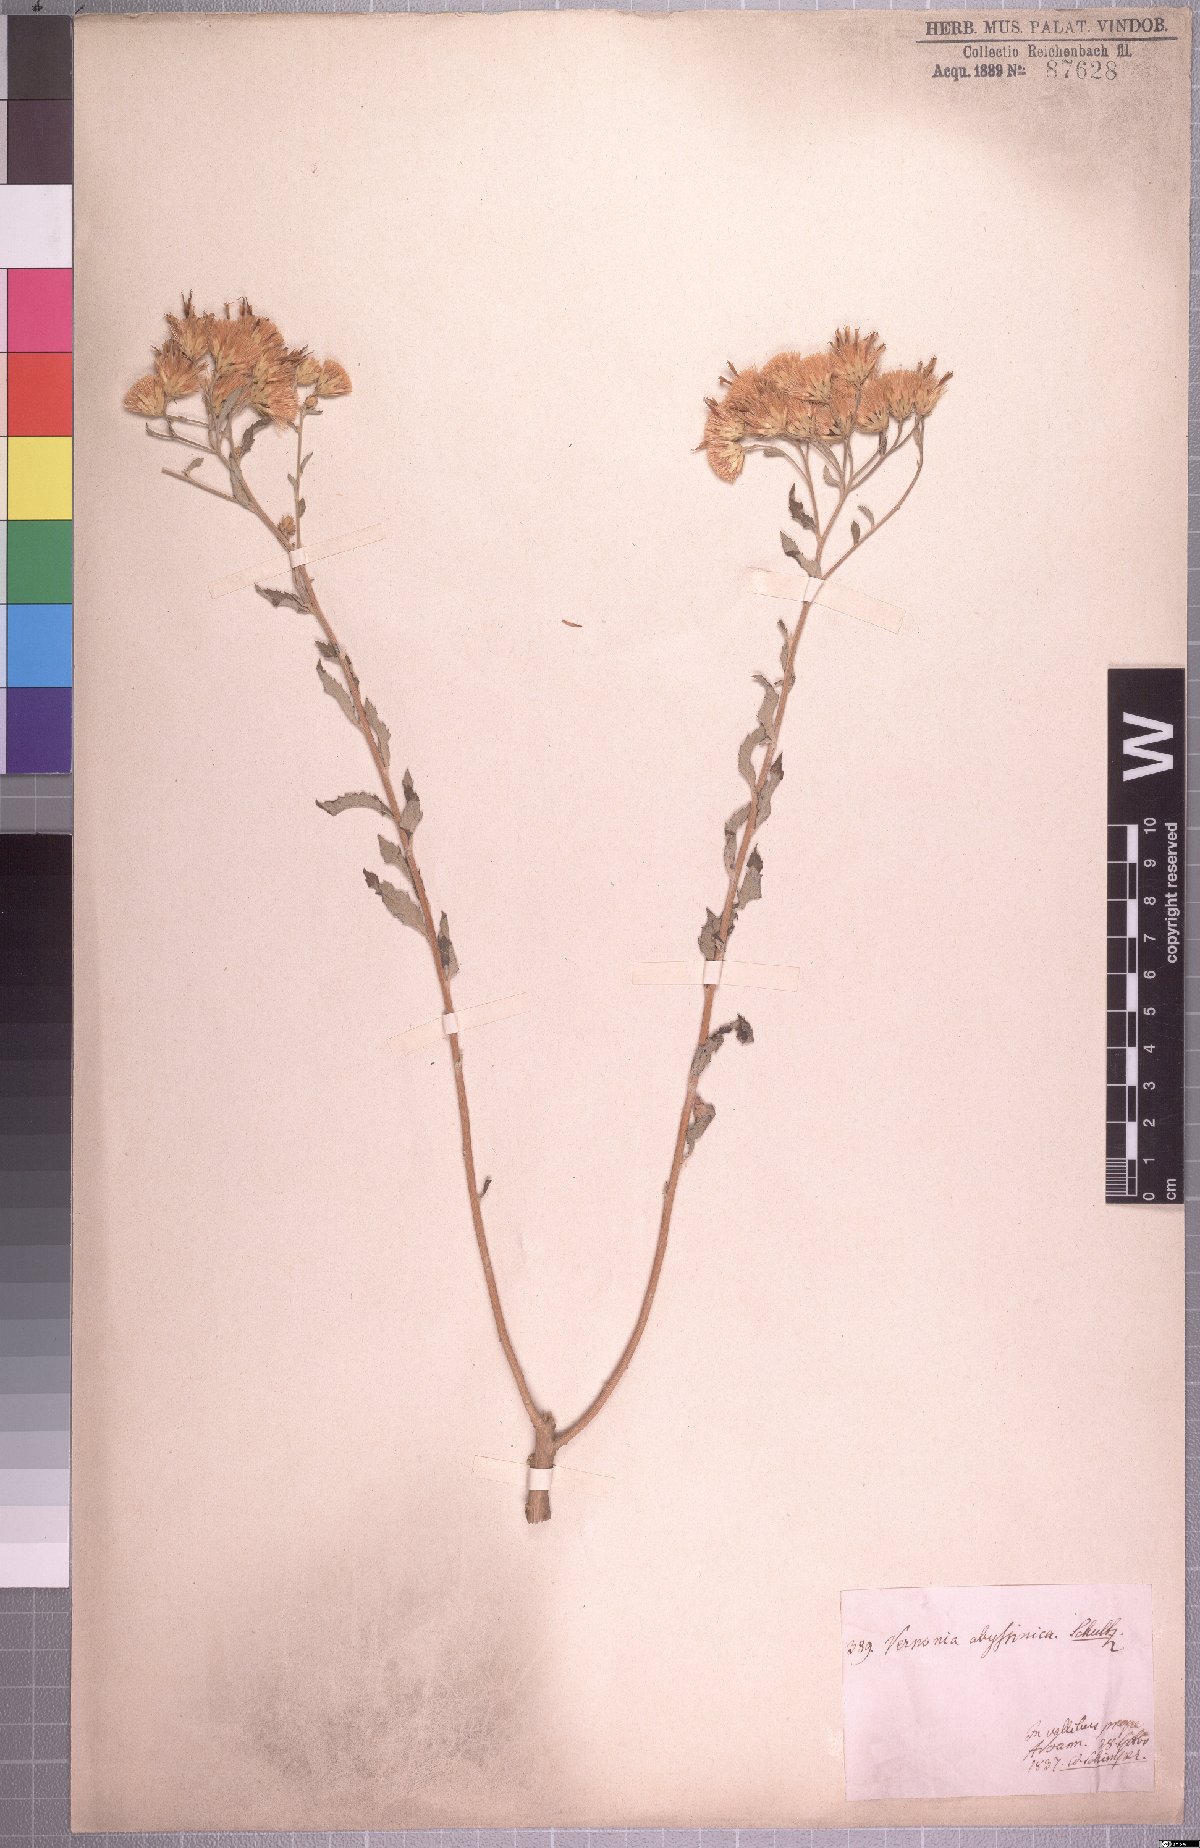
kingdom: Plantae
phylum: Tracheophyta
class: Magnoliopsida
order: Asterales
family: Asteraceae
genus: Baccharoides
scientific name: Baccharoides schimperi
